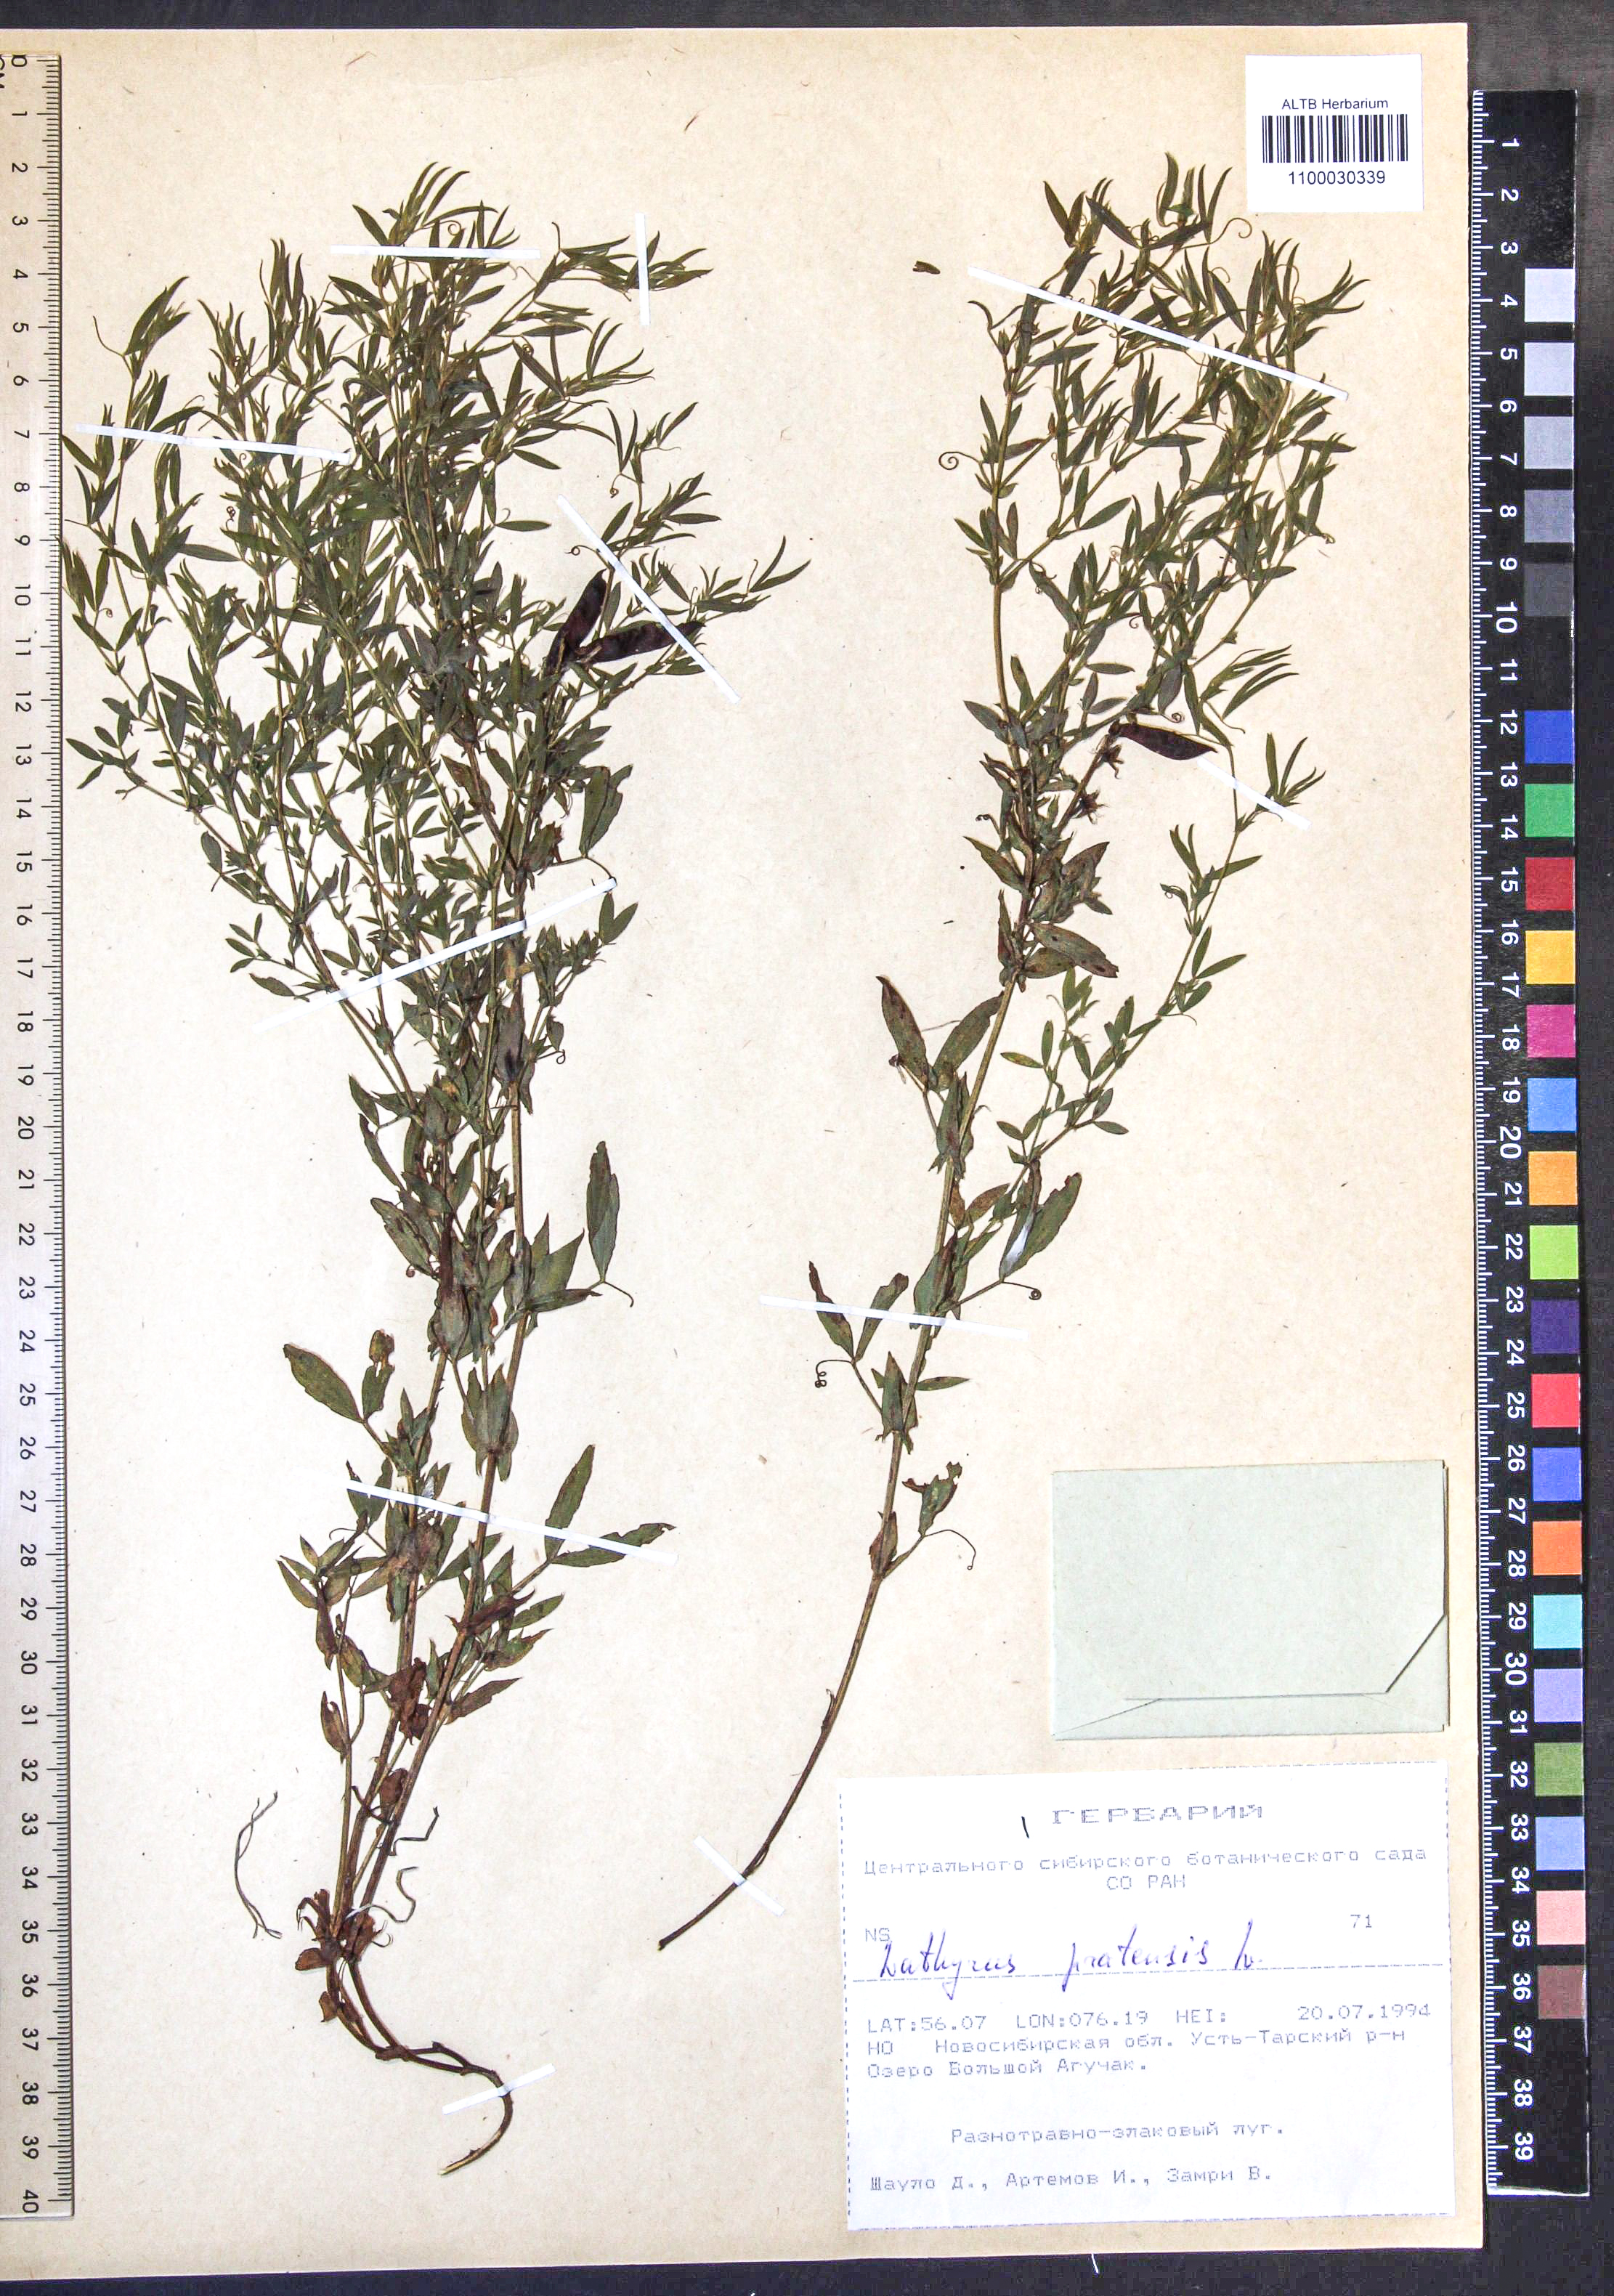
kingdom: Plantae
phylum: Tracheophyta
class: Magnoliopsida
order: Fabales
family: Fabaceae
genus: Lathyrus
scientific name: Lathyrus pratensis
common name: Meadow vetchling
